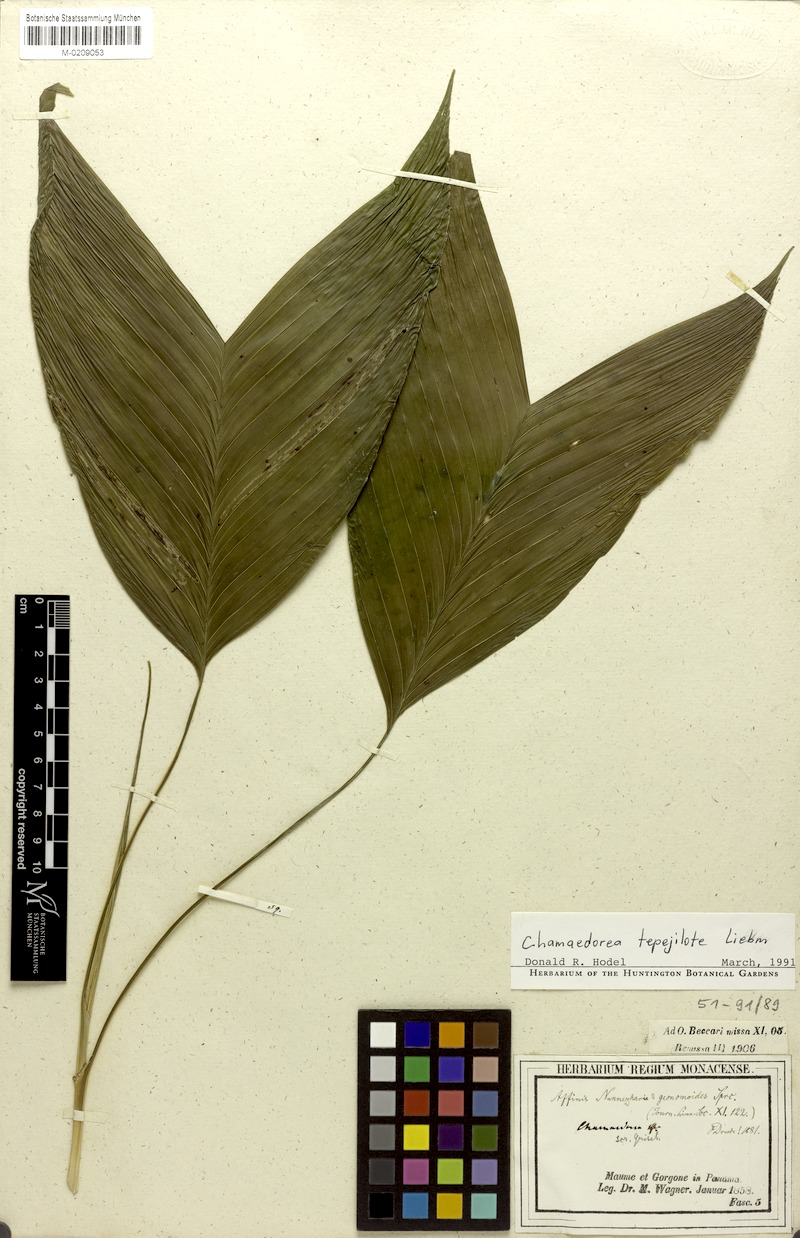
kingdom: Plantae
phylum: Tracheophyta
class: Liliopsida
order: Arecales
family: Arecaceae
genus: Chamaedorea
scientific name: Chamaedorea tepejilote
